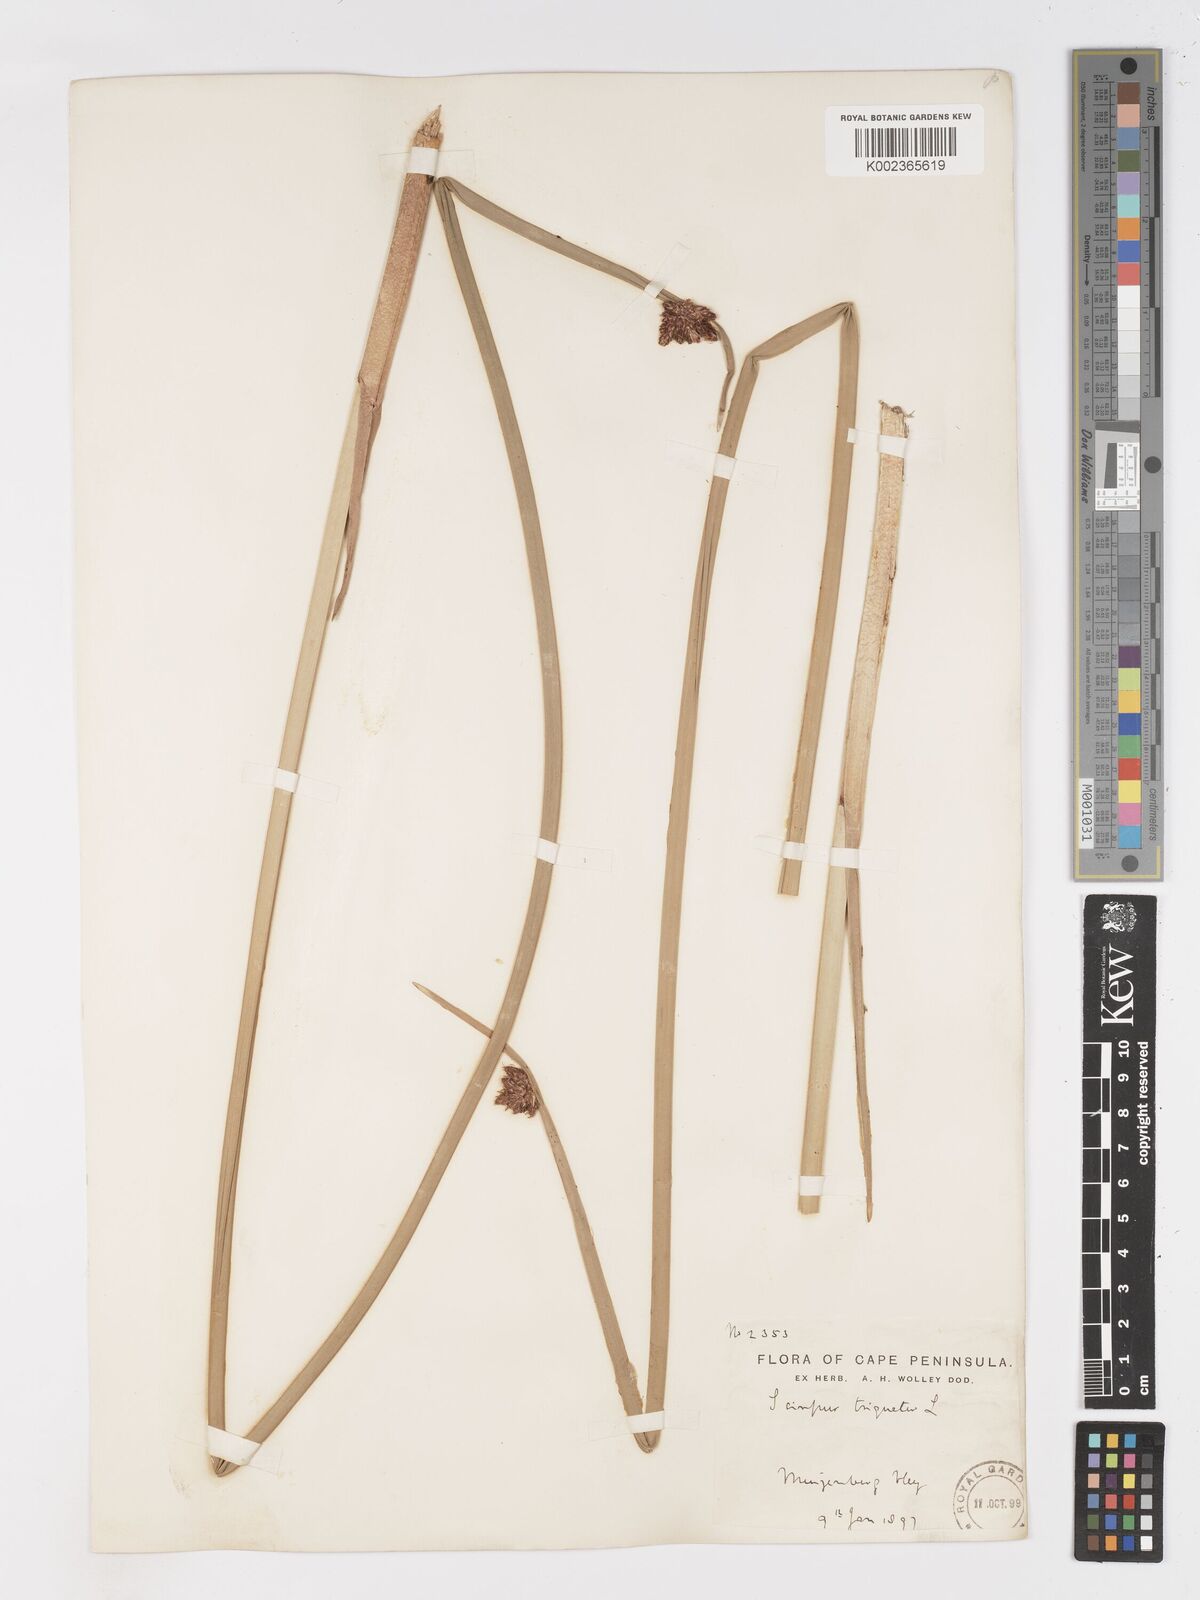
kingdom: Plantae
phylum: Tracheophyta
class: Liliopsida
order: Poales
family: Cyperaceae
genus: Schoenoplectus
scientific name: Schoenoplectus triqueter
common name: Triangular club-rush
